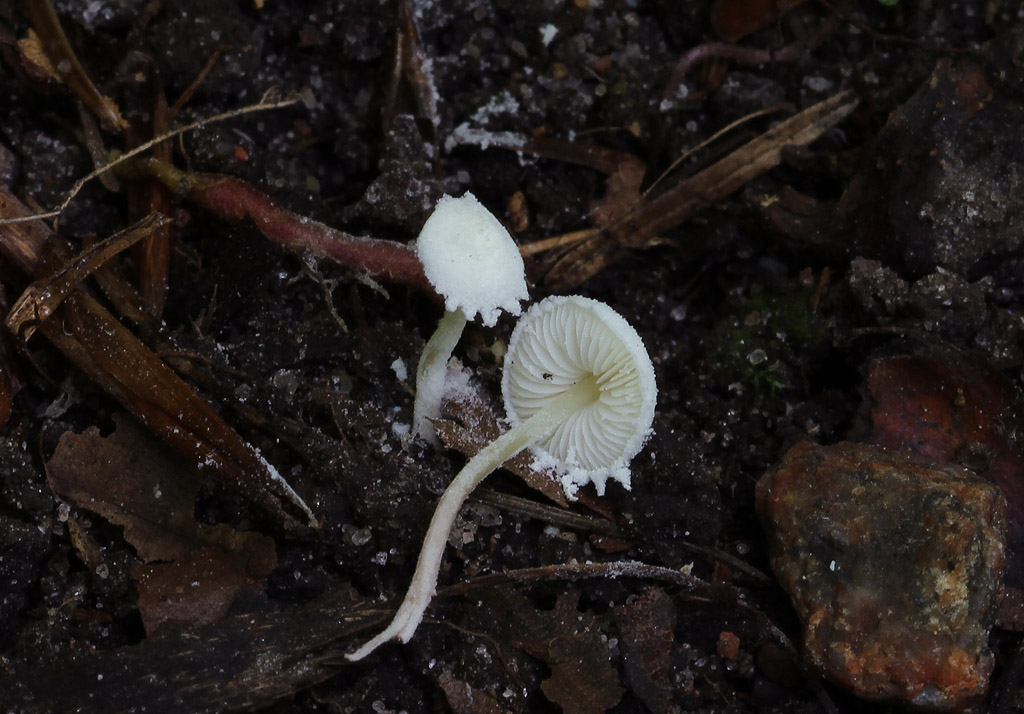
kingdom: Fungi
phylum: Basidiomycota
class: Agaricomycetes
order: Agaricales
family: Agaricaceae
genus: Cystolepiota
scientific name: Cystolepiota seminuda
